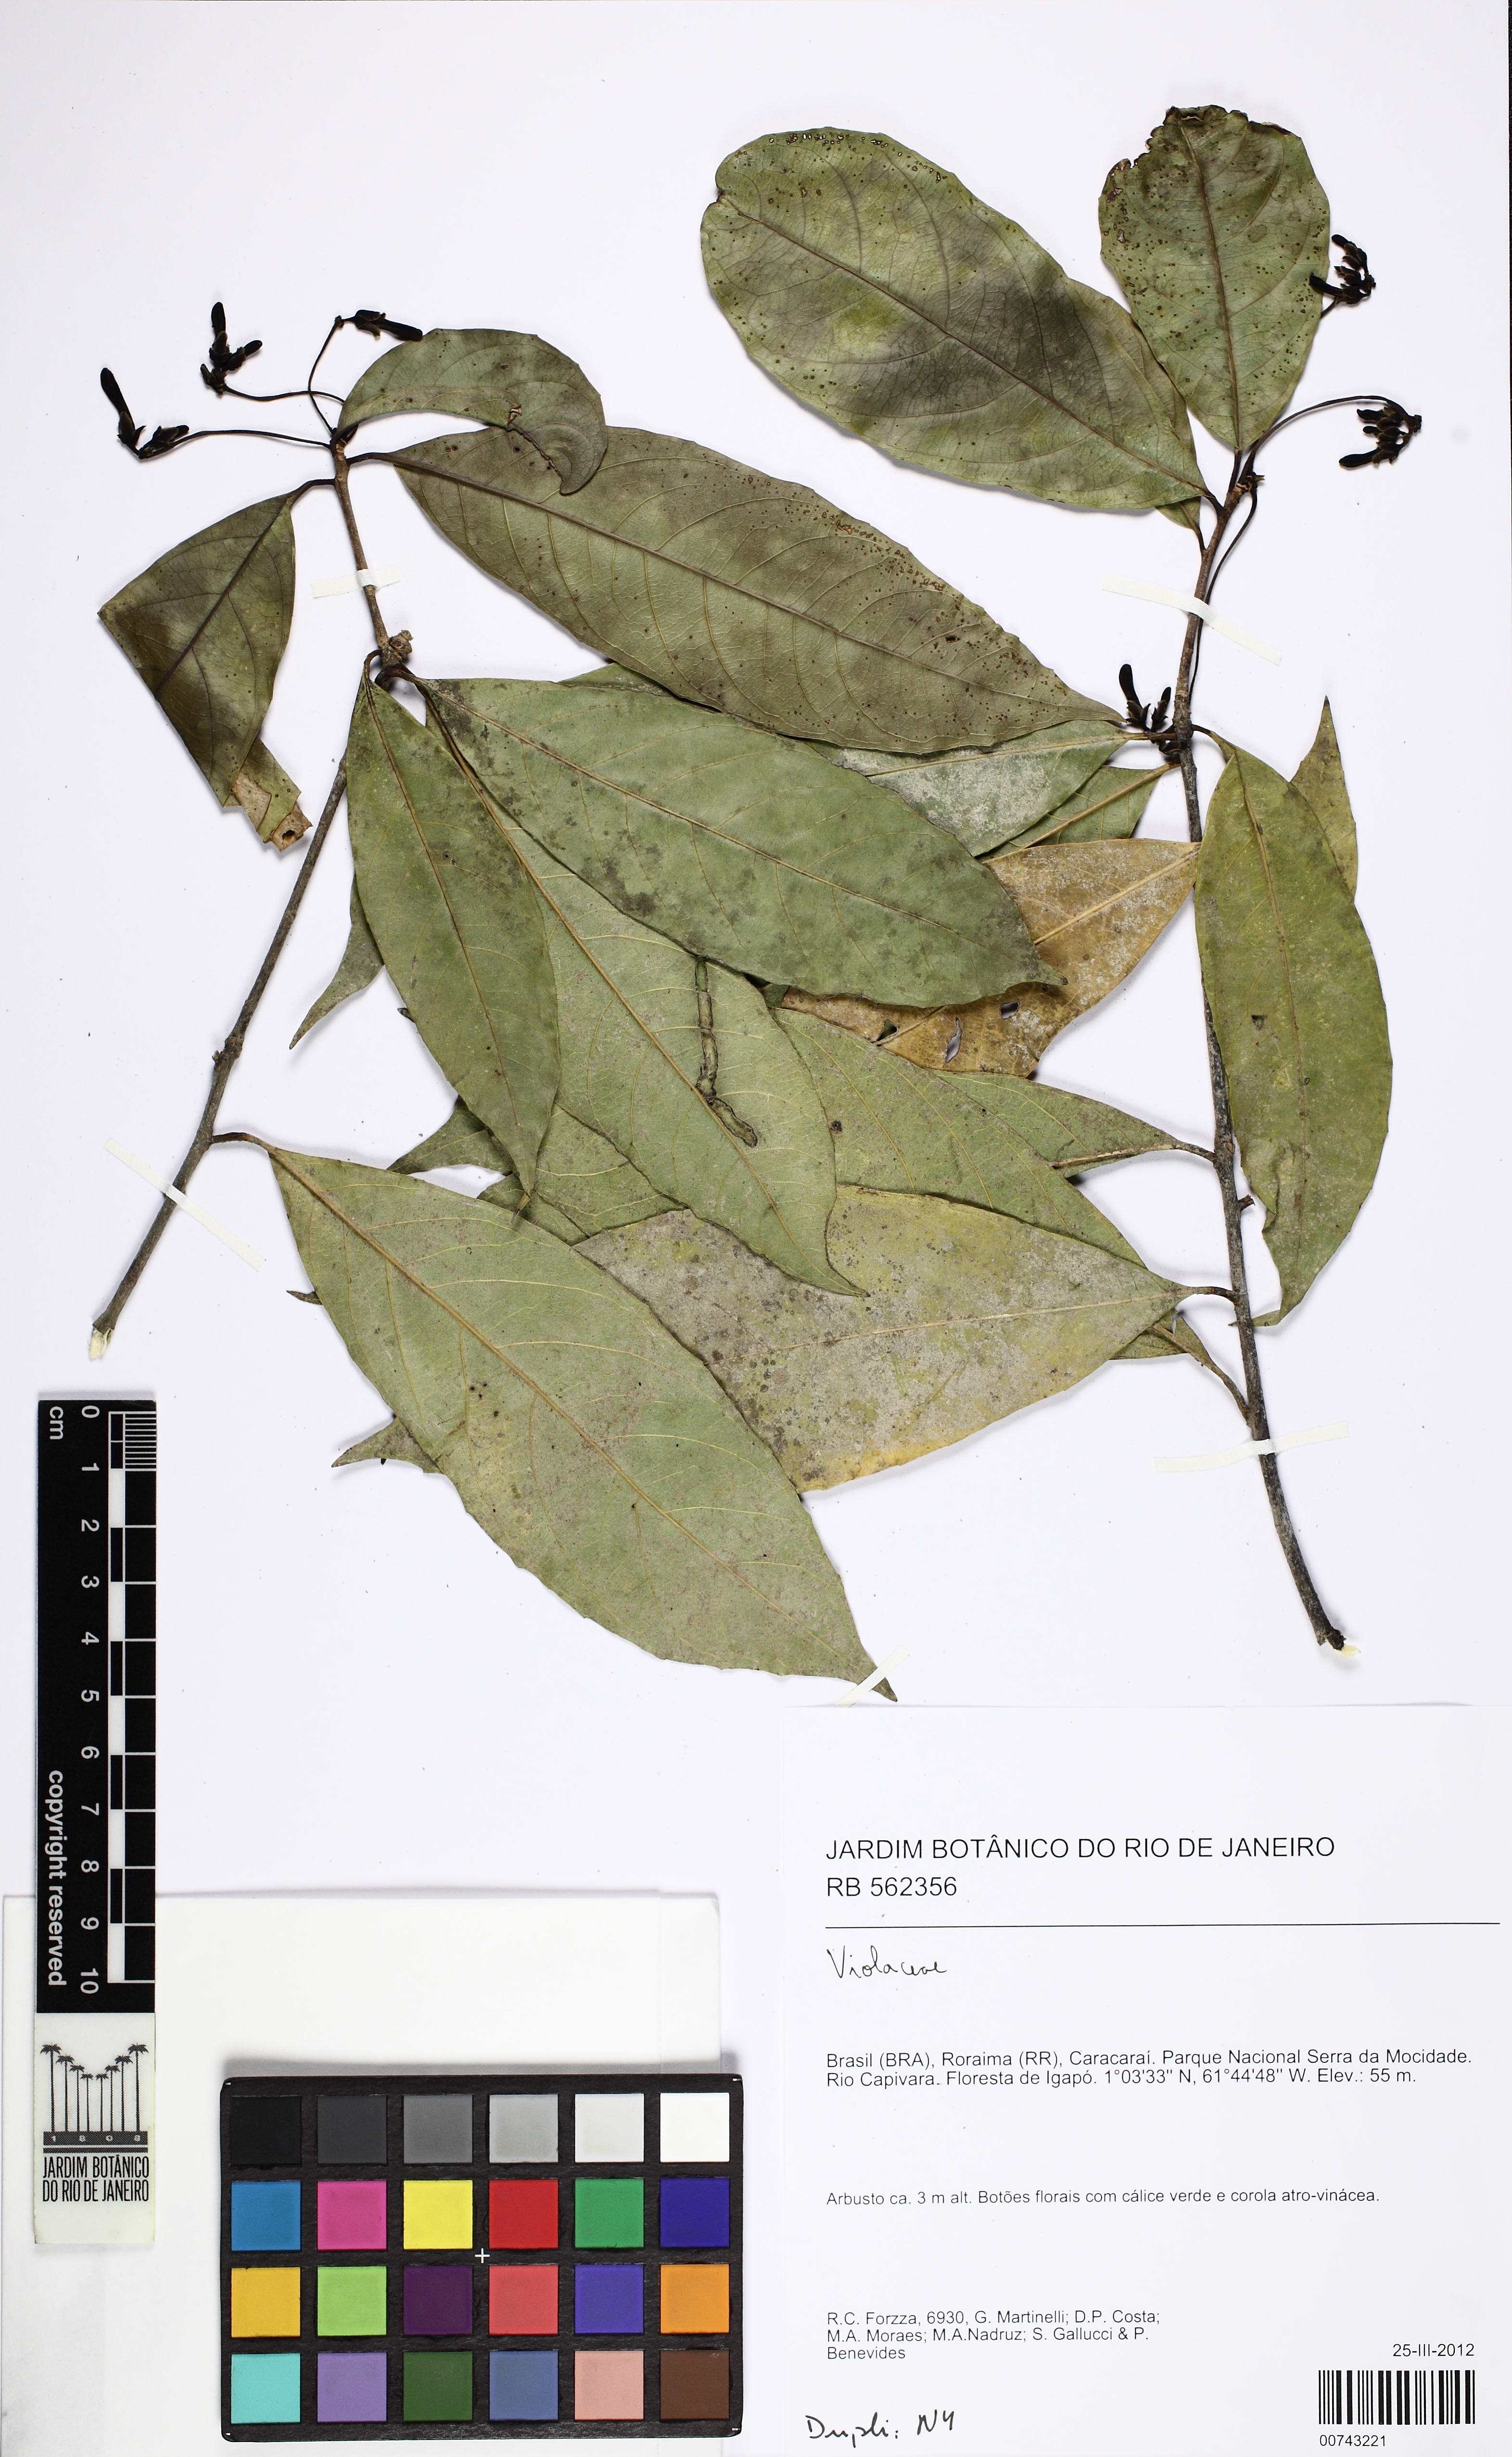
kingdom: Plantae
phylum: Tracheophyta
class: Magnoliopsida
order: Malpighiales
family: Violaceae
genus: Amphirrhox
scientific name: Amphirrhox longifolia
